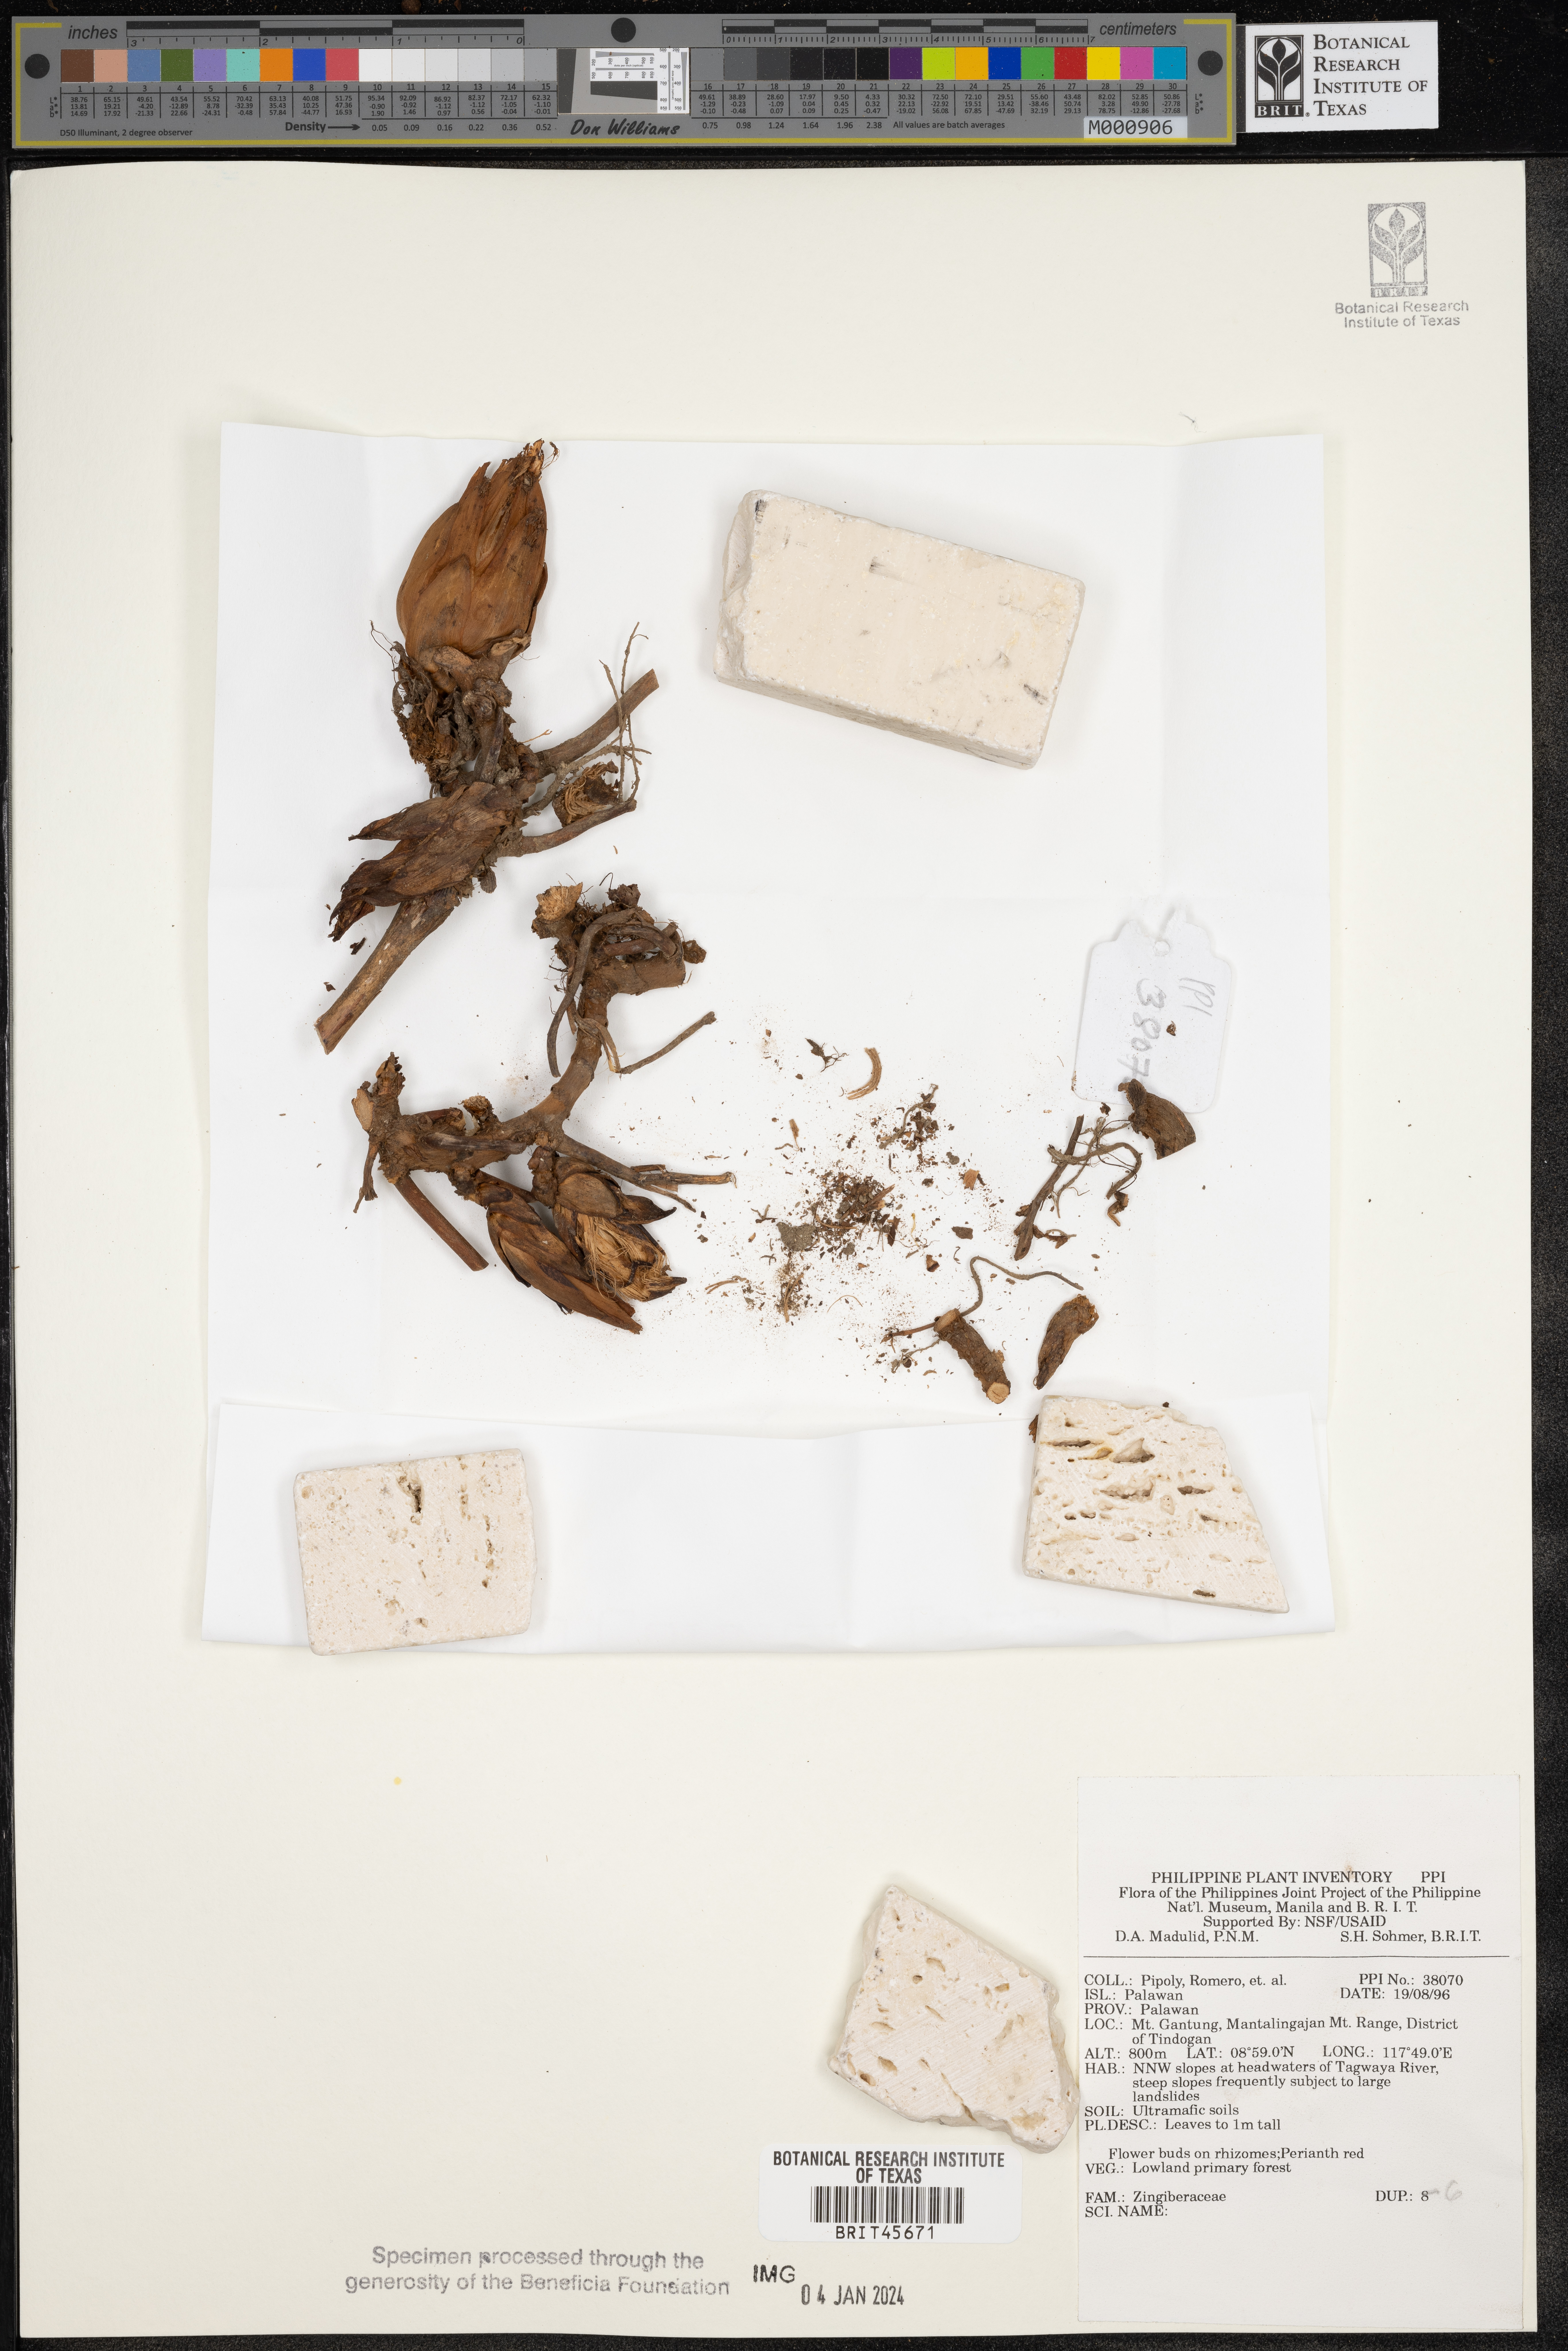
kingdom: Plantae
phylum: Tracheophyta
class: Liliopsida
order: Zingiberales
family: Zingiberaceae
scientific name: Zingiberaceae
